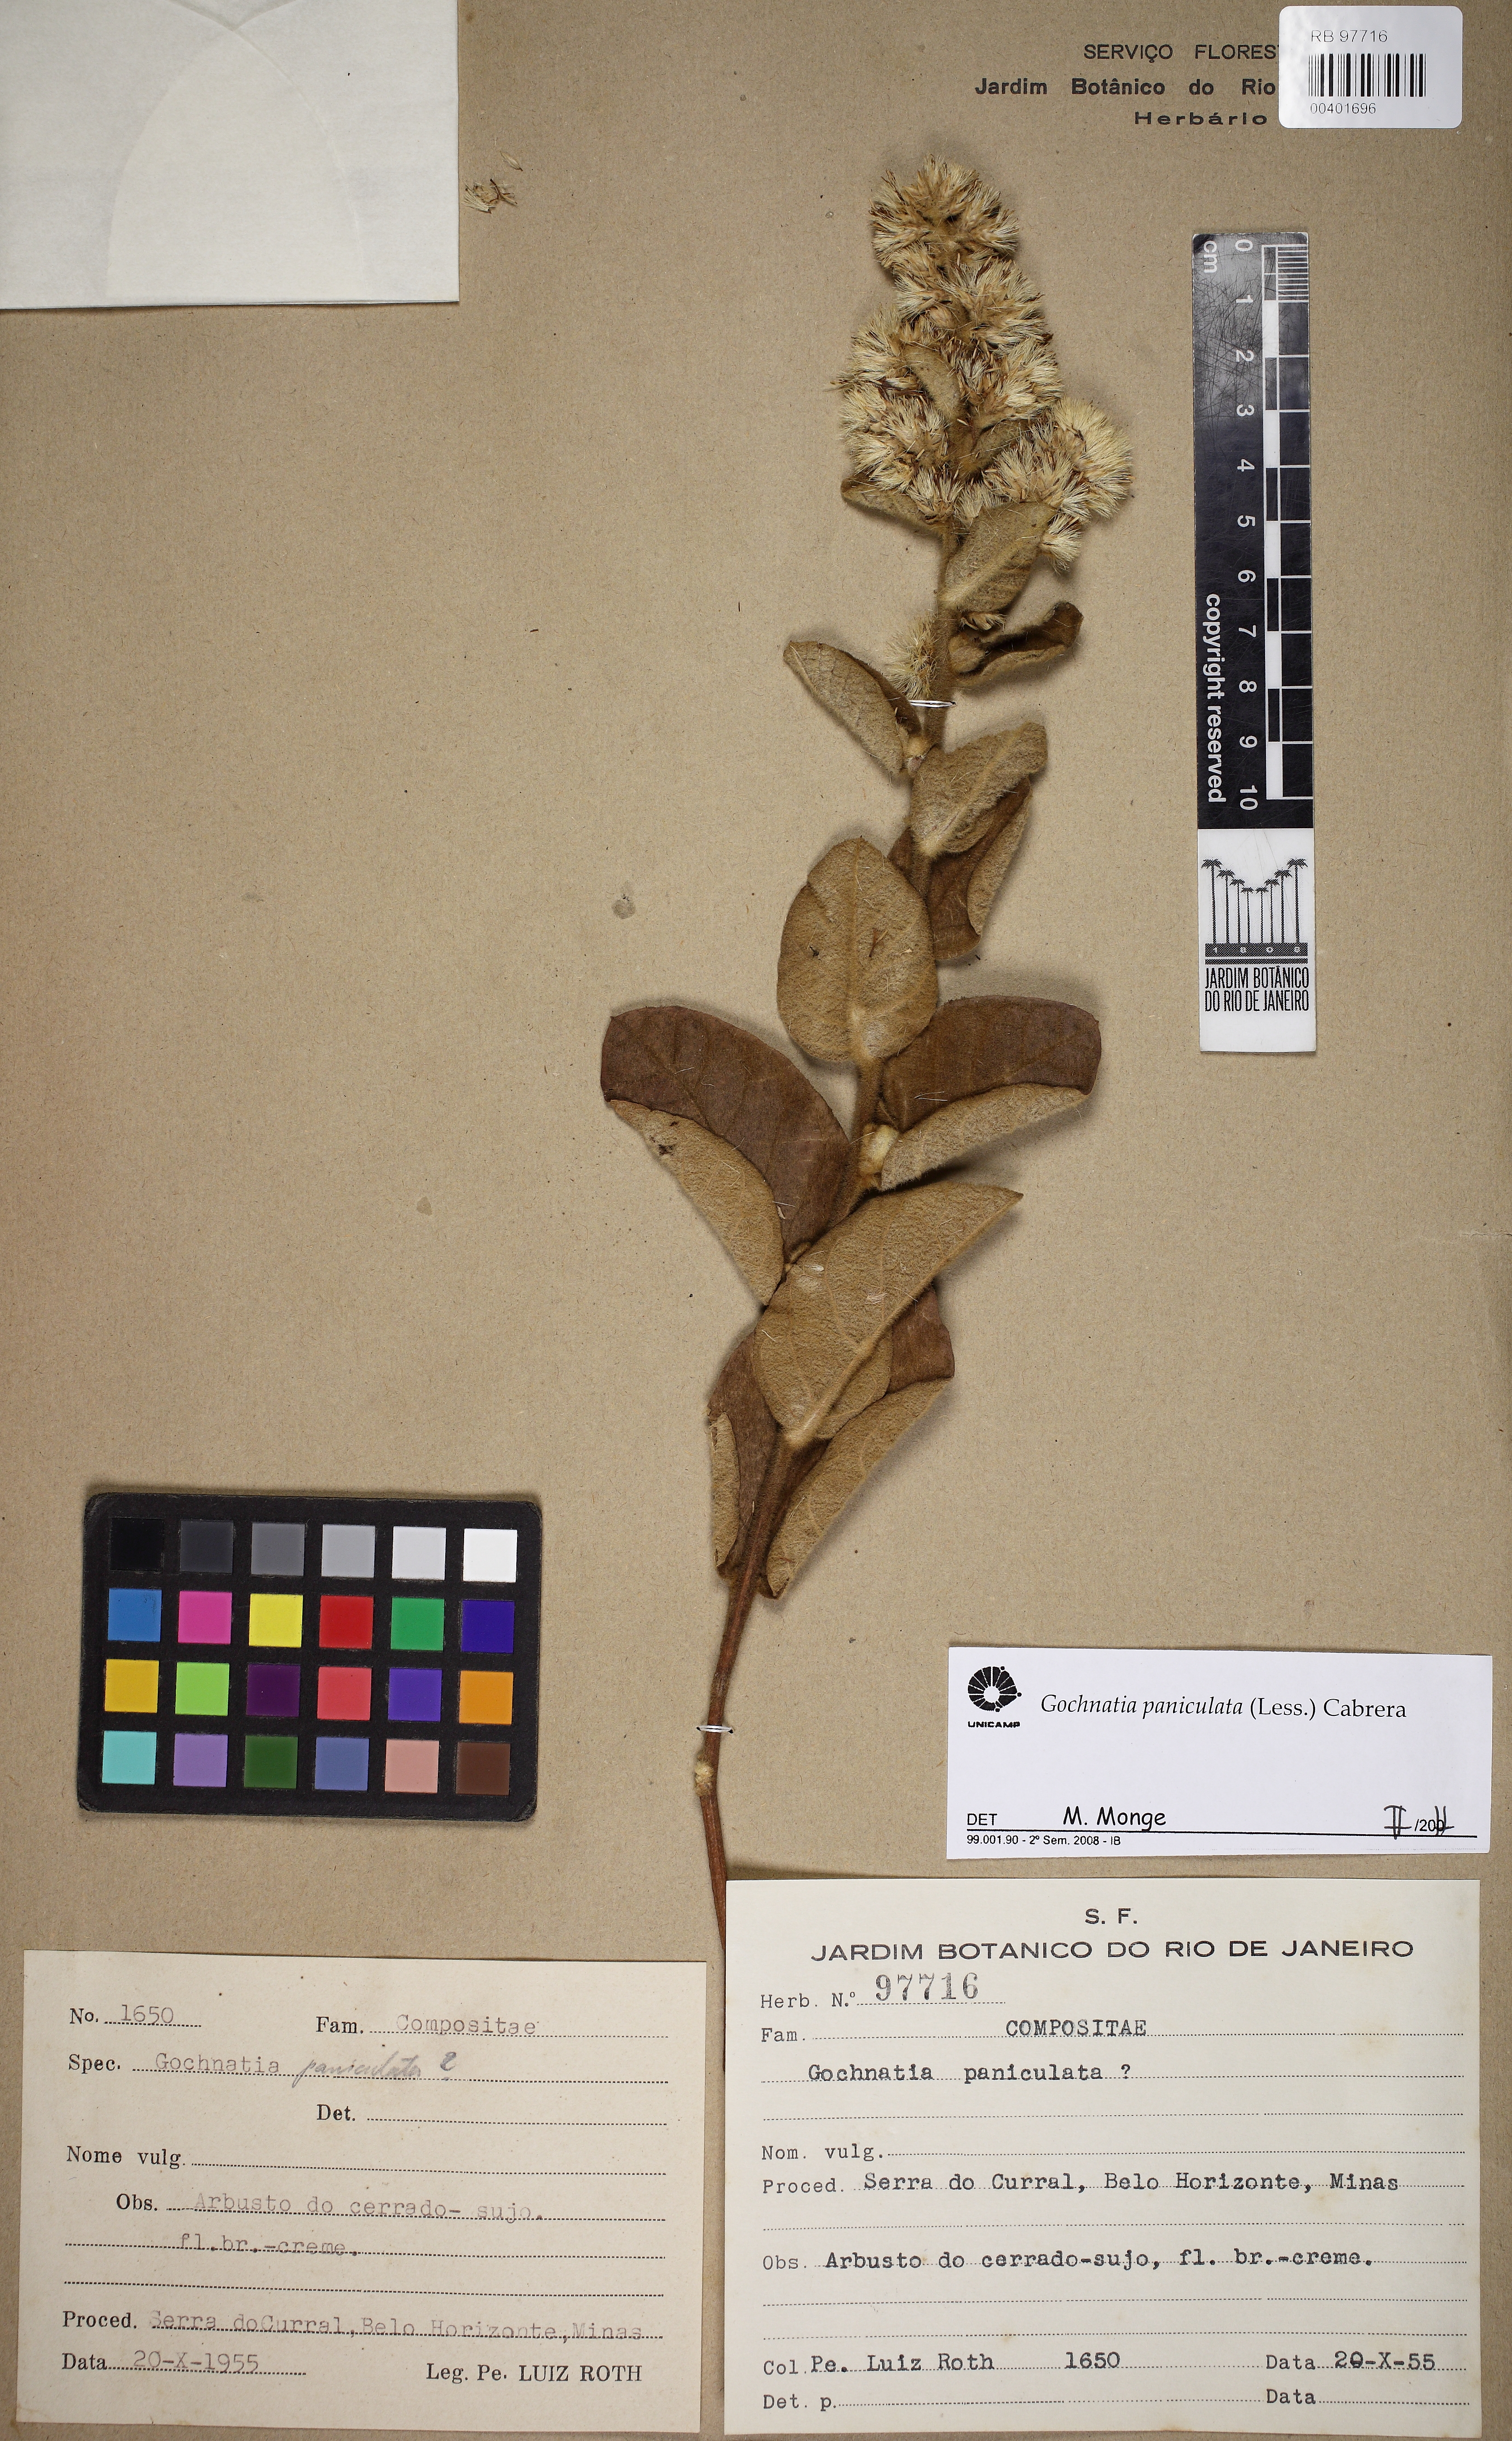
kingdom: Plantae
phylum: Tracheophyta
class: Magnoliopsida
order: Asterales
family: Asteraceae
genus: Moquiniastrum
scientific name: Moquiniastrum paniculatum
